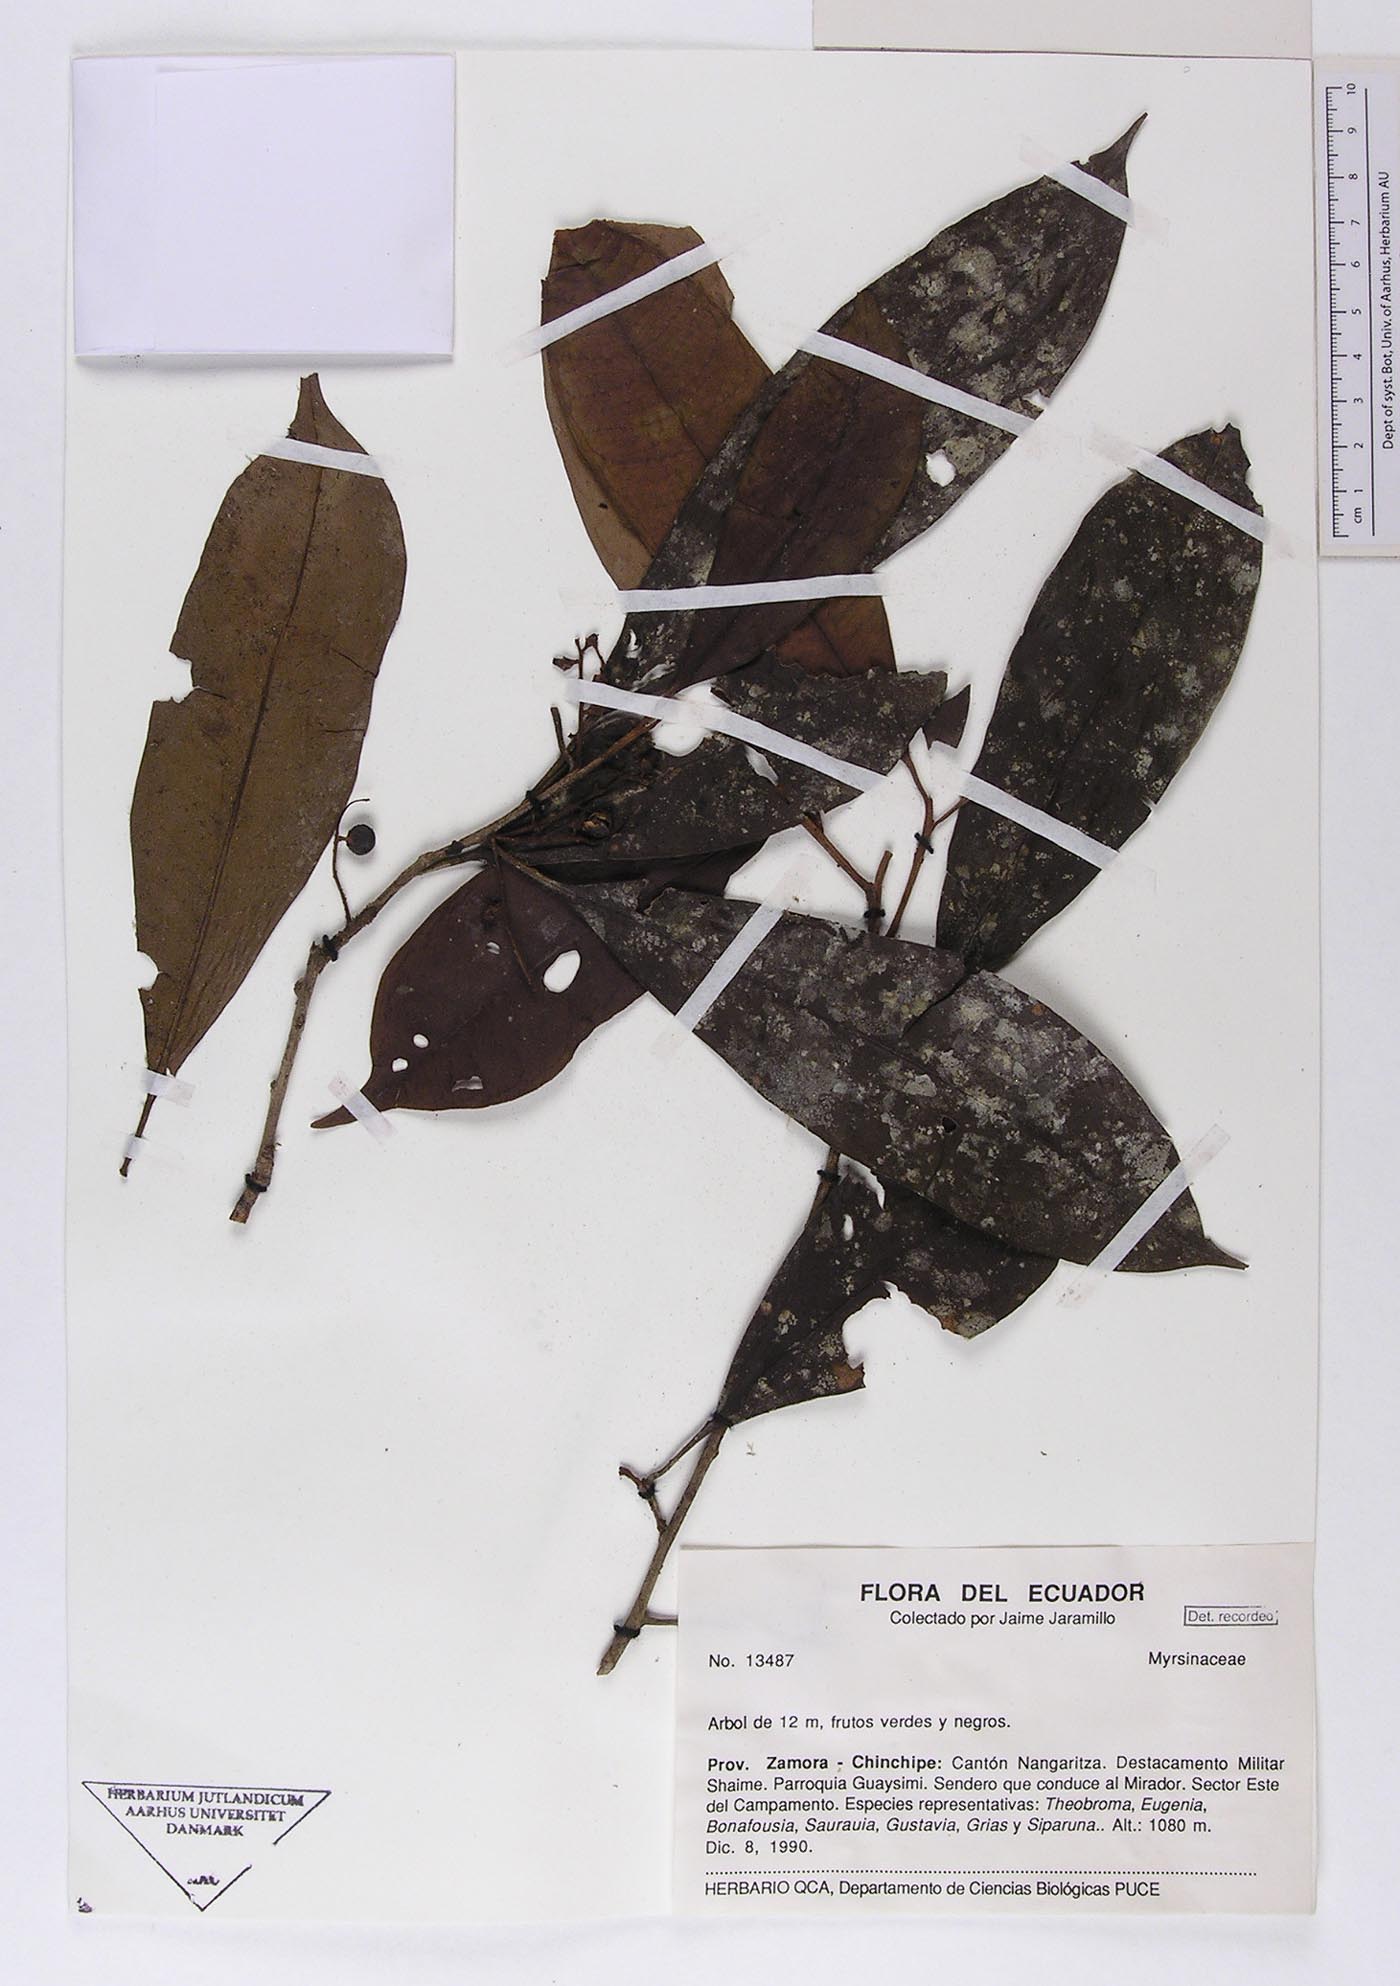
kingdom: Plantae
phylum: Tracheophyta
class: Magnoliopsida
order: Ericales
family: Primulaceae
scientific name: Primulaceae
